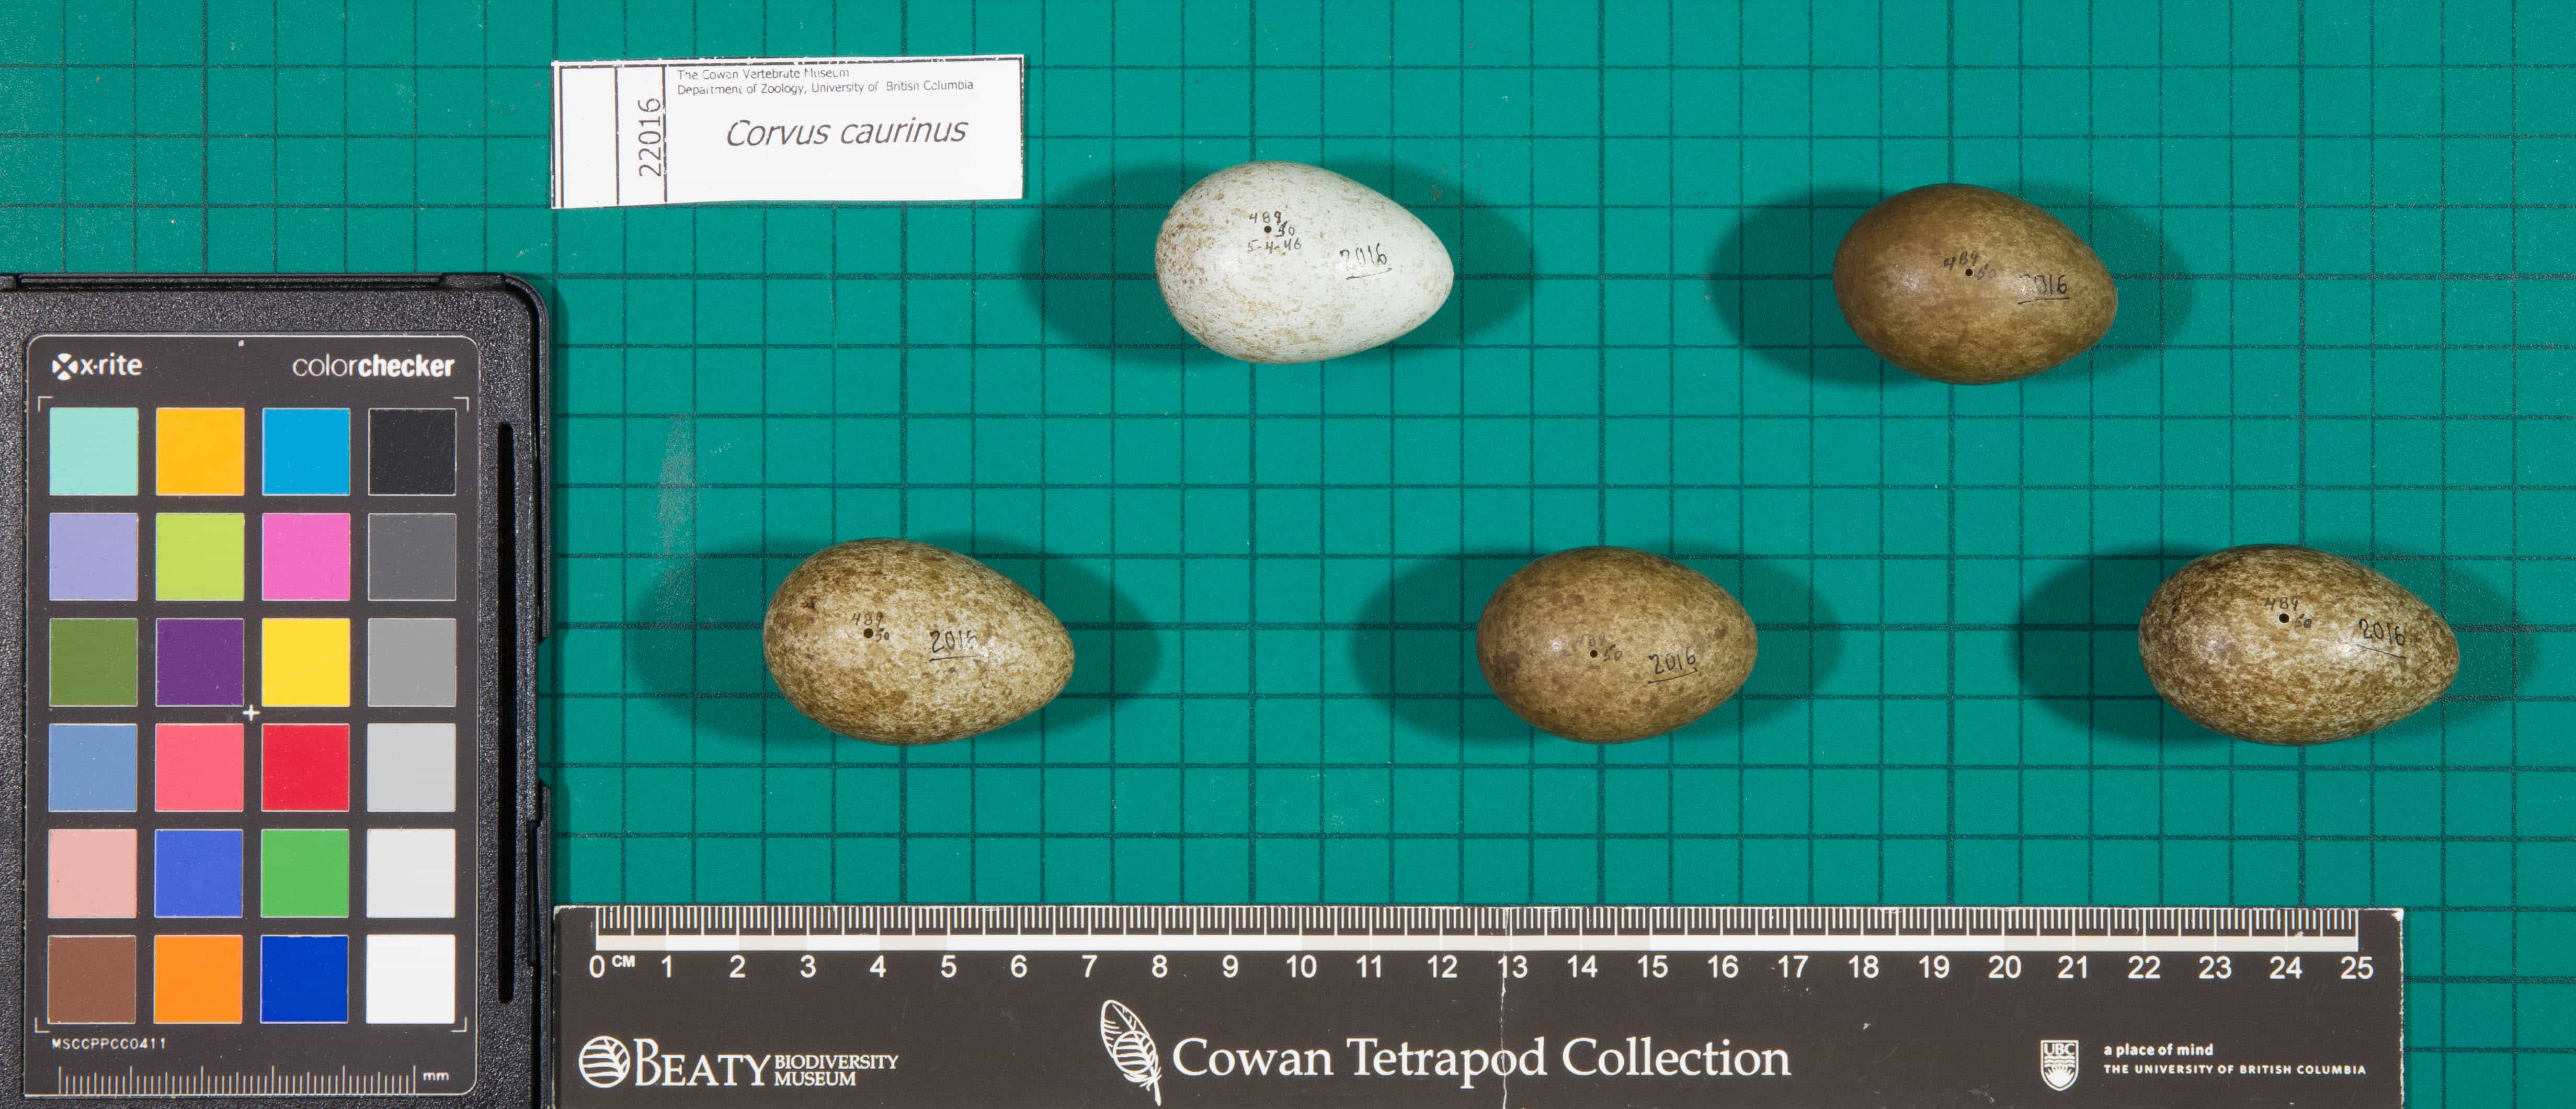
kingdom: Animalia
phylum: Chordata
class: Aves
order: Passeriformes
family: Corvidae
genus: Corvus
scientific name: Corvus brachyrhynchos
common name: American Crow
